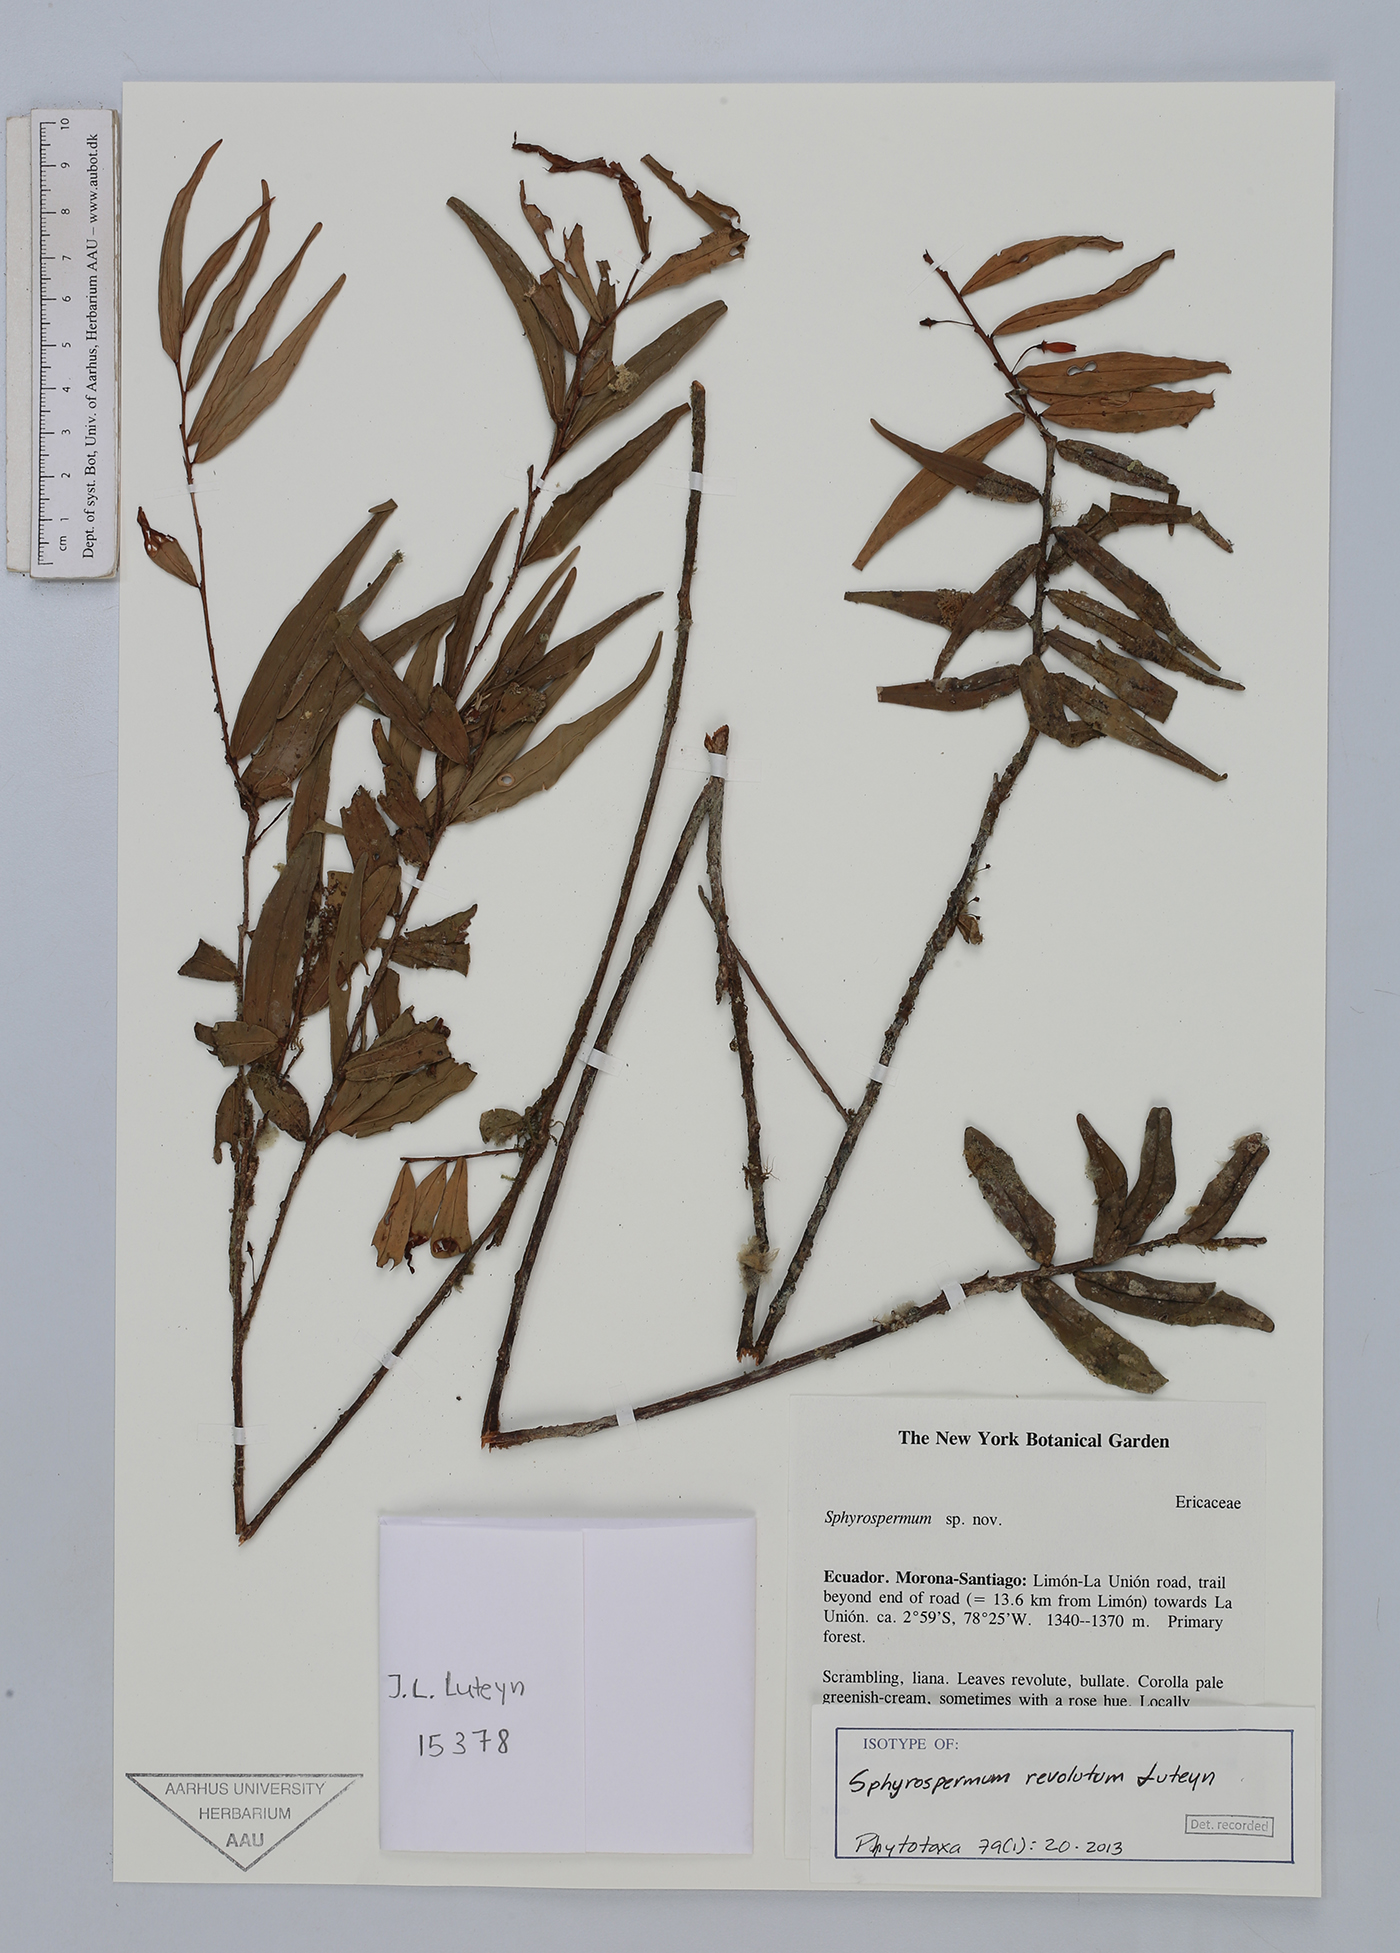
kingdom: Plantae
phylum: Tracheophyta
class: Magnoliopsida
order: Ericales
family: Ericaceae
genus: Sphyrospermum
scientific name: Sphyrospermum revolutum
